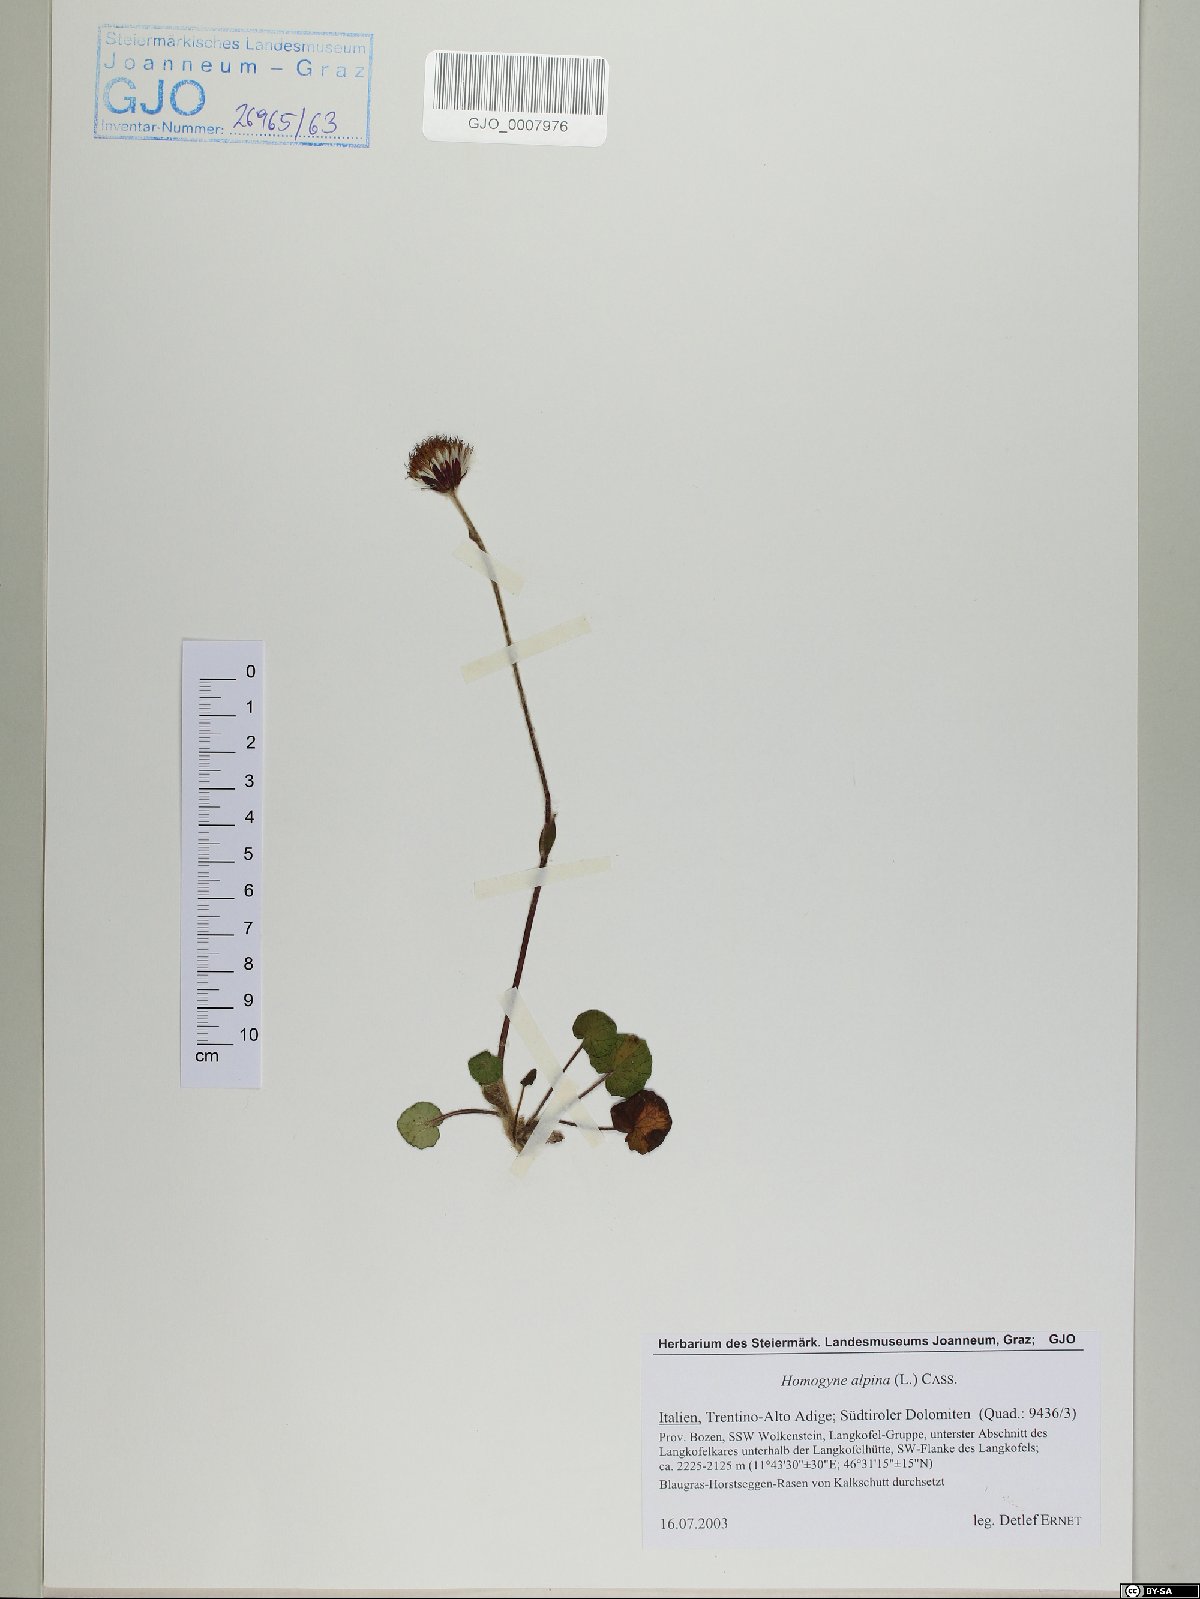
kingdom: Plantae
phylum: Tracheophyta
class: Magnoliopsida
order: Asterales
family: Asteraceae
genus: Homogyne
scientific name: Homogyne alpina
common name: Purple colt's-foot
